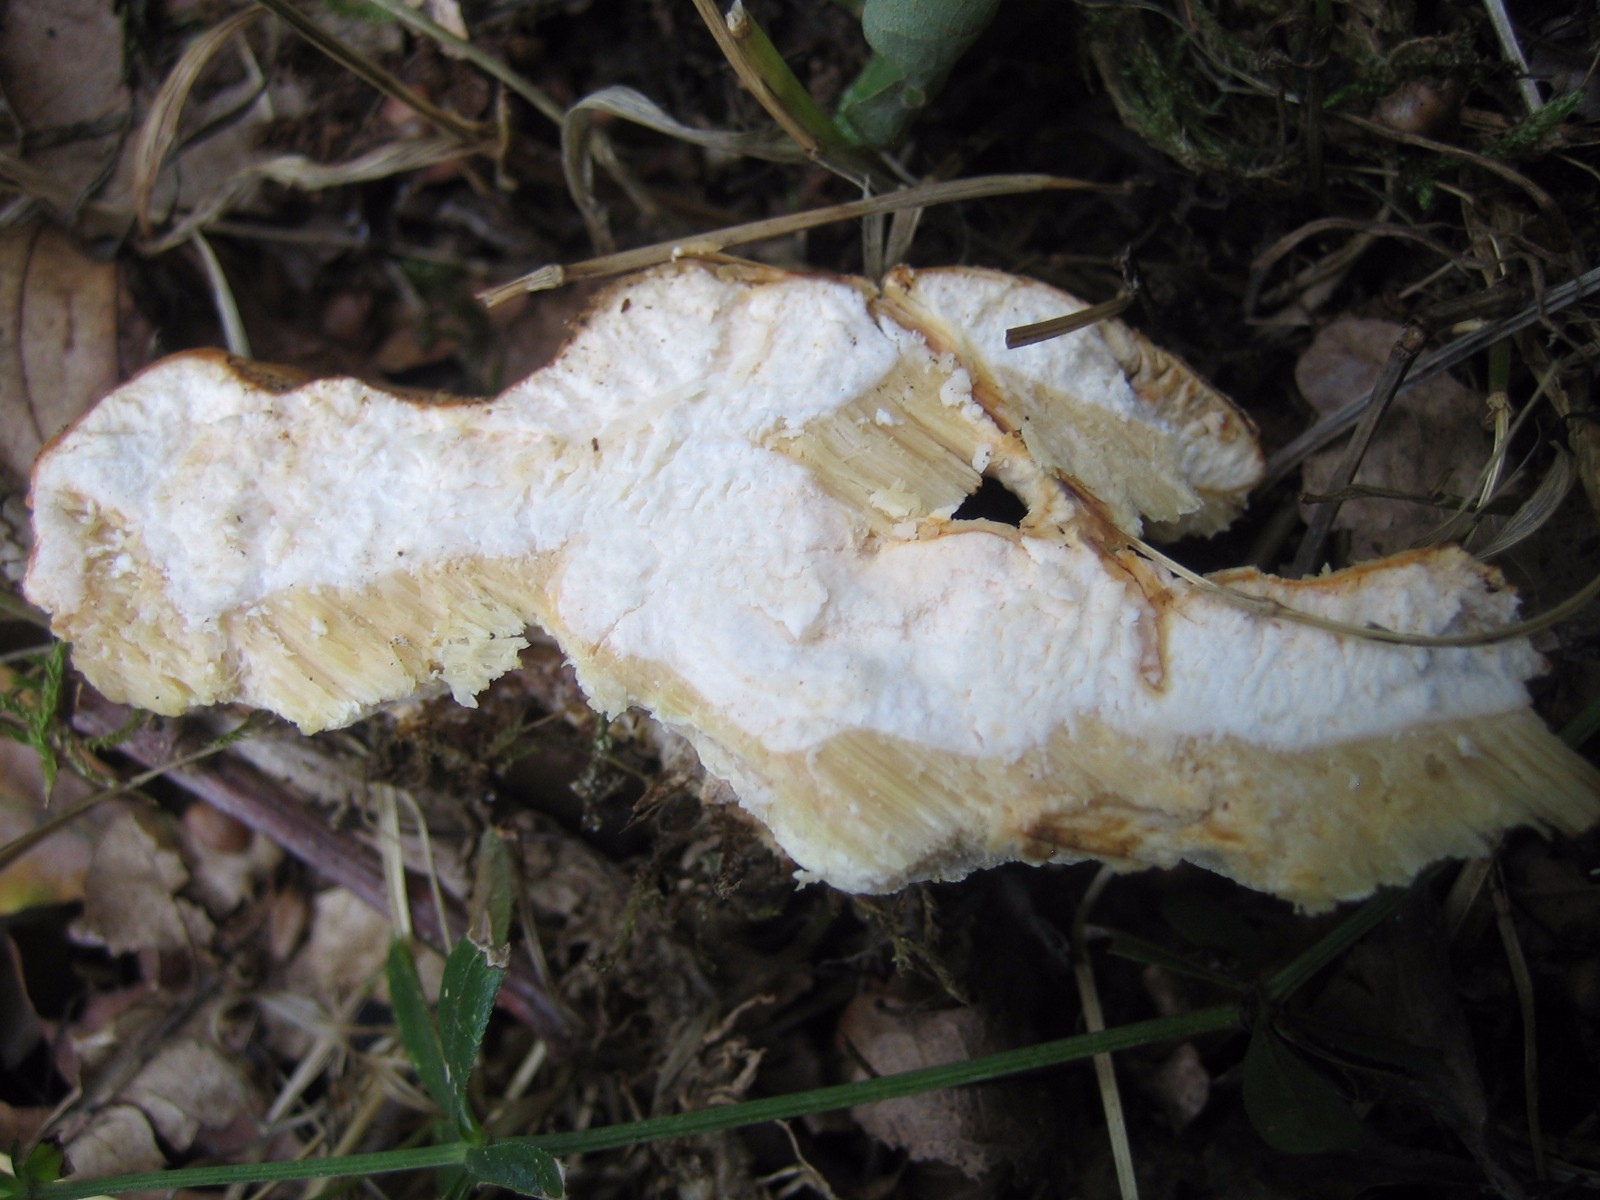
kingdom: Fungi
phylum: Basidiomycota
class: Agaricomycetes
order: Polyporales
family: Laetiporaceae
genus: Laetiporus
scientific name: Laetiporus sulphureus
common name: svovlporesvamp
